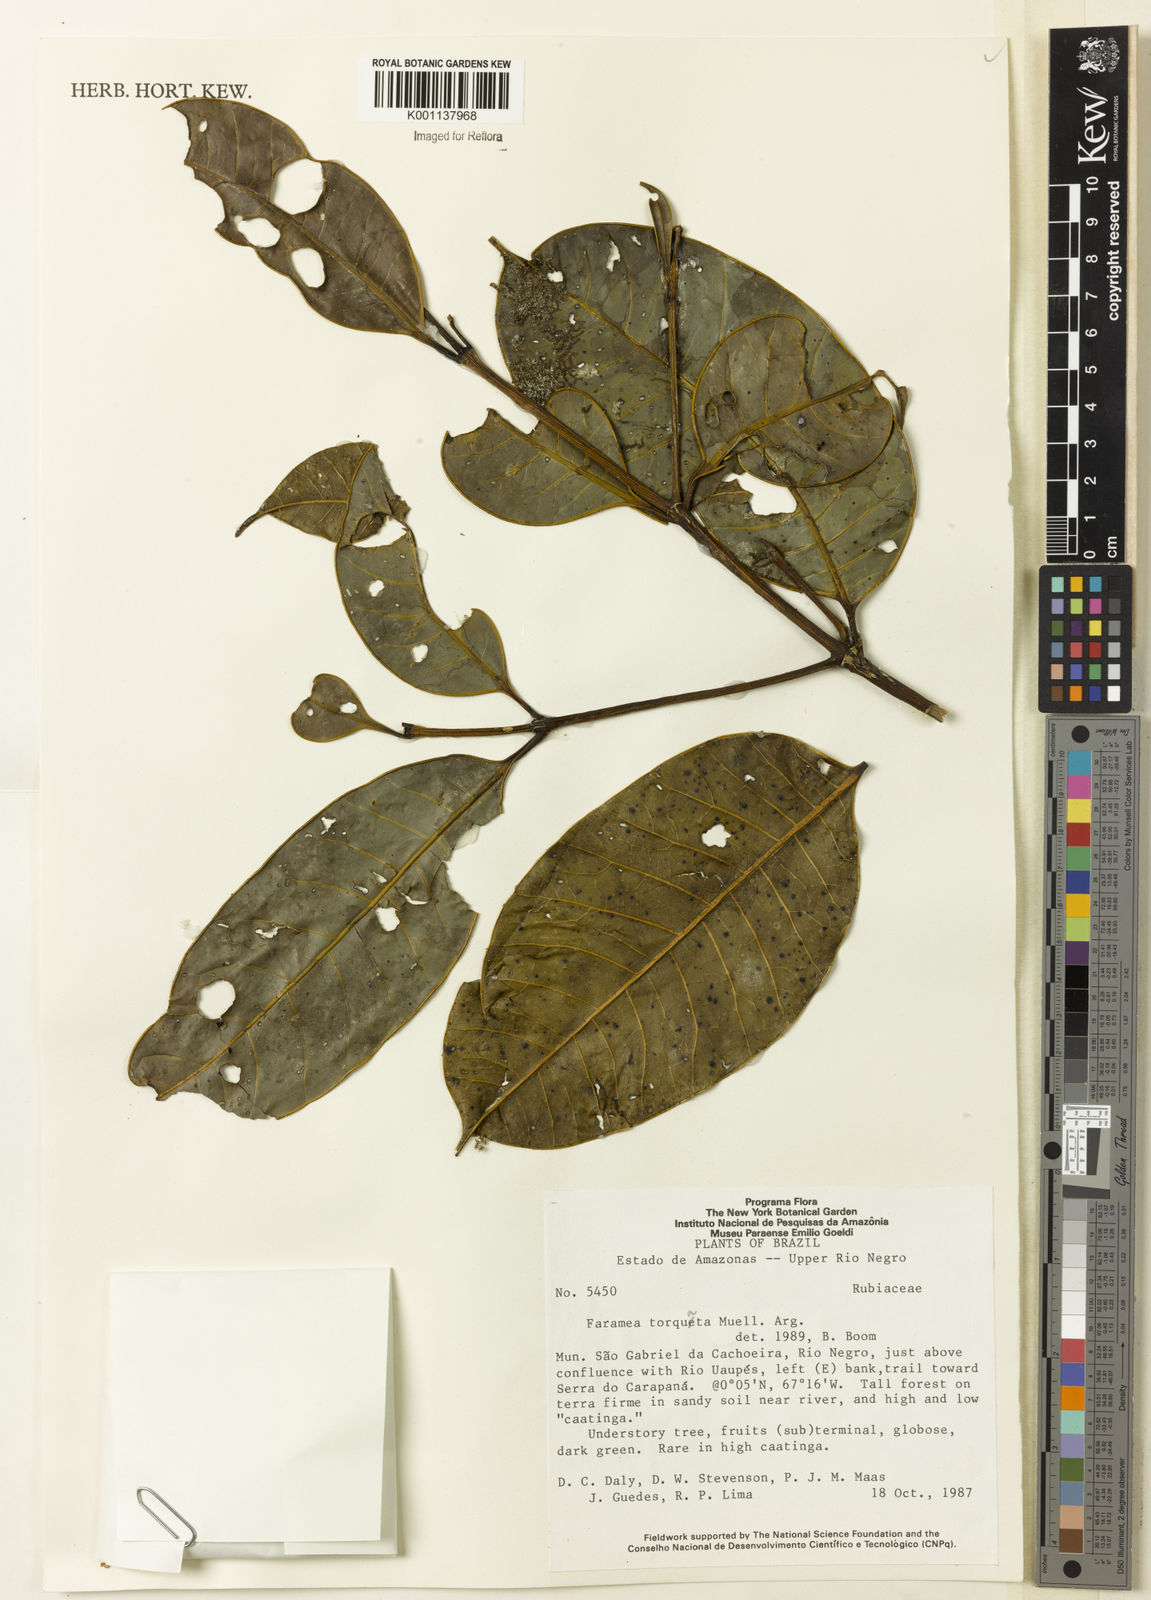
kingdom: Plantae
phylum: Tracheophyta
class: Magnoliopsida
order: Gentianales
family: Rubiaceae
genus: Faramea
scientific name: Faramea
